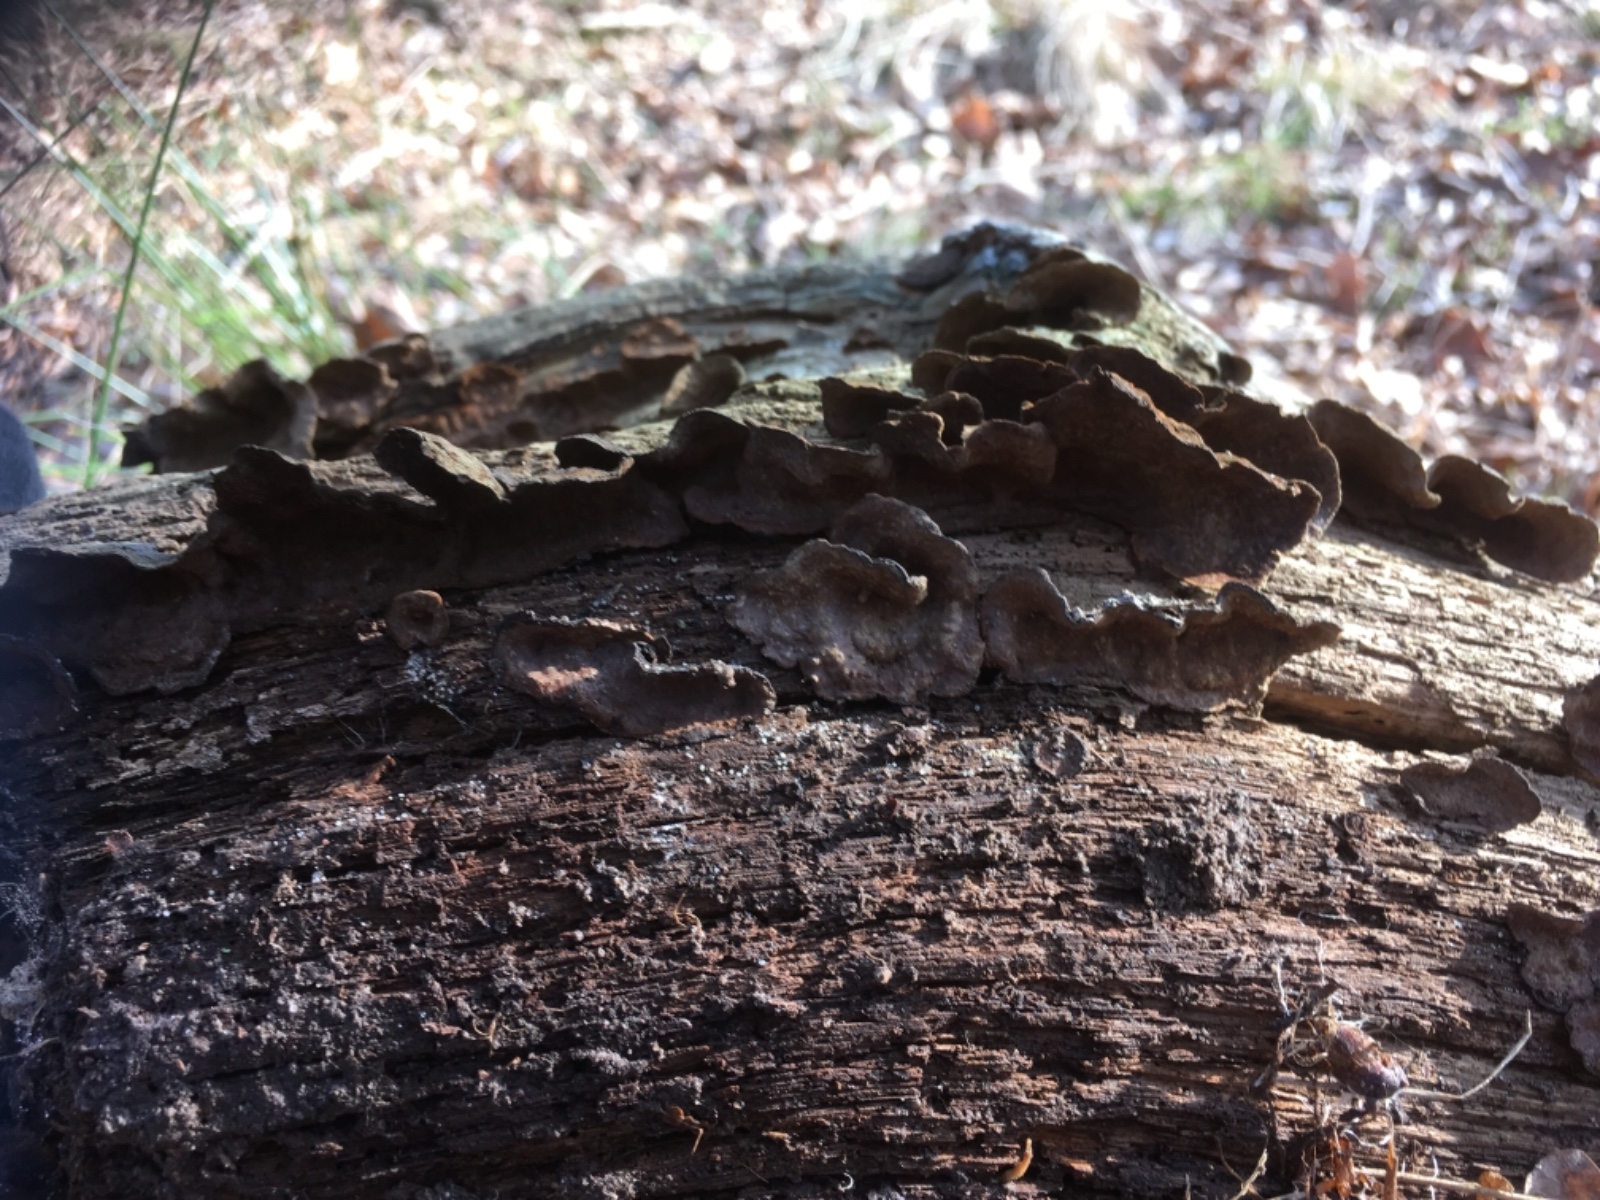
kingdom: Fungi
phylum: Basidiomycota
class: Agaricomycetes
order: Hymenochaetales
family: Hymenochaetaceae
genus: Hymenochaete
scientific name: Hymenochaete rubiginosa
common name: stiv ruslædersvamp
